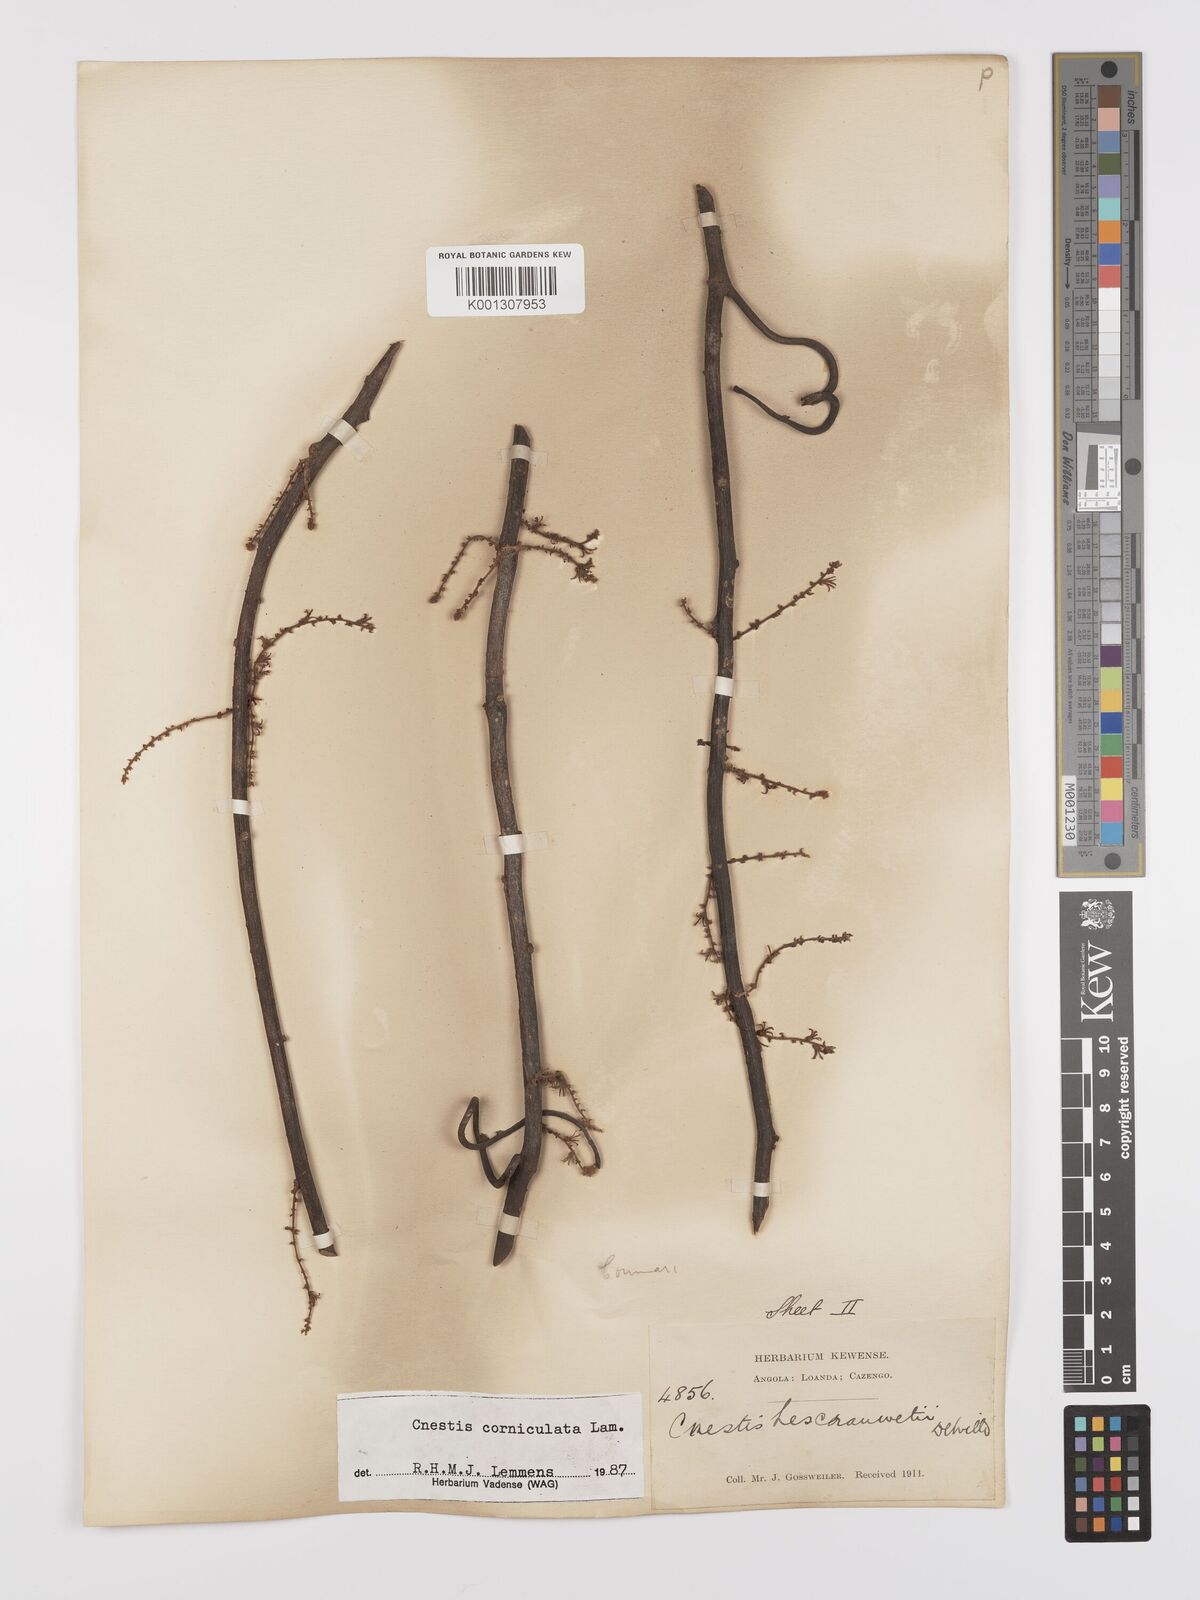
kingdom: Plantae
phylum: Tracheophyta
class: Magnoliopsida
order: Oxalidales
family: Connaraceae
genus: Cnestis
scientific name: Cnestis corniculata
